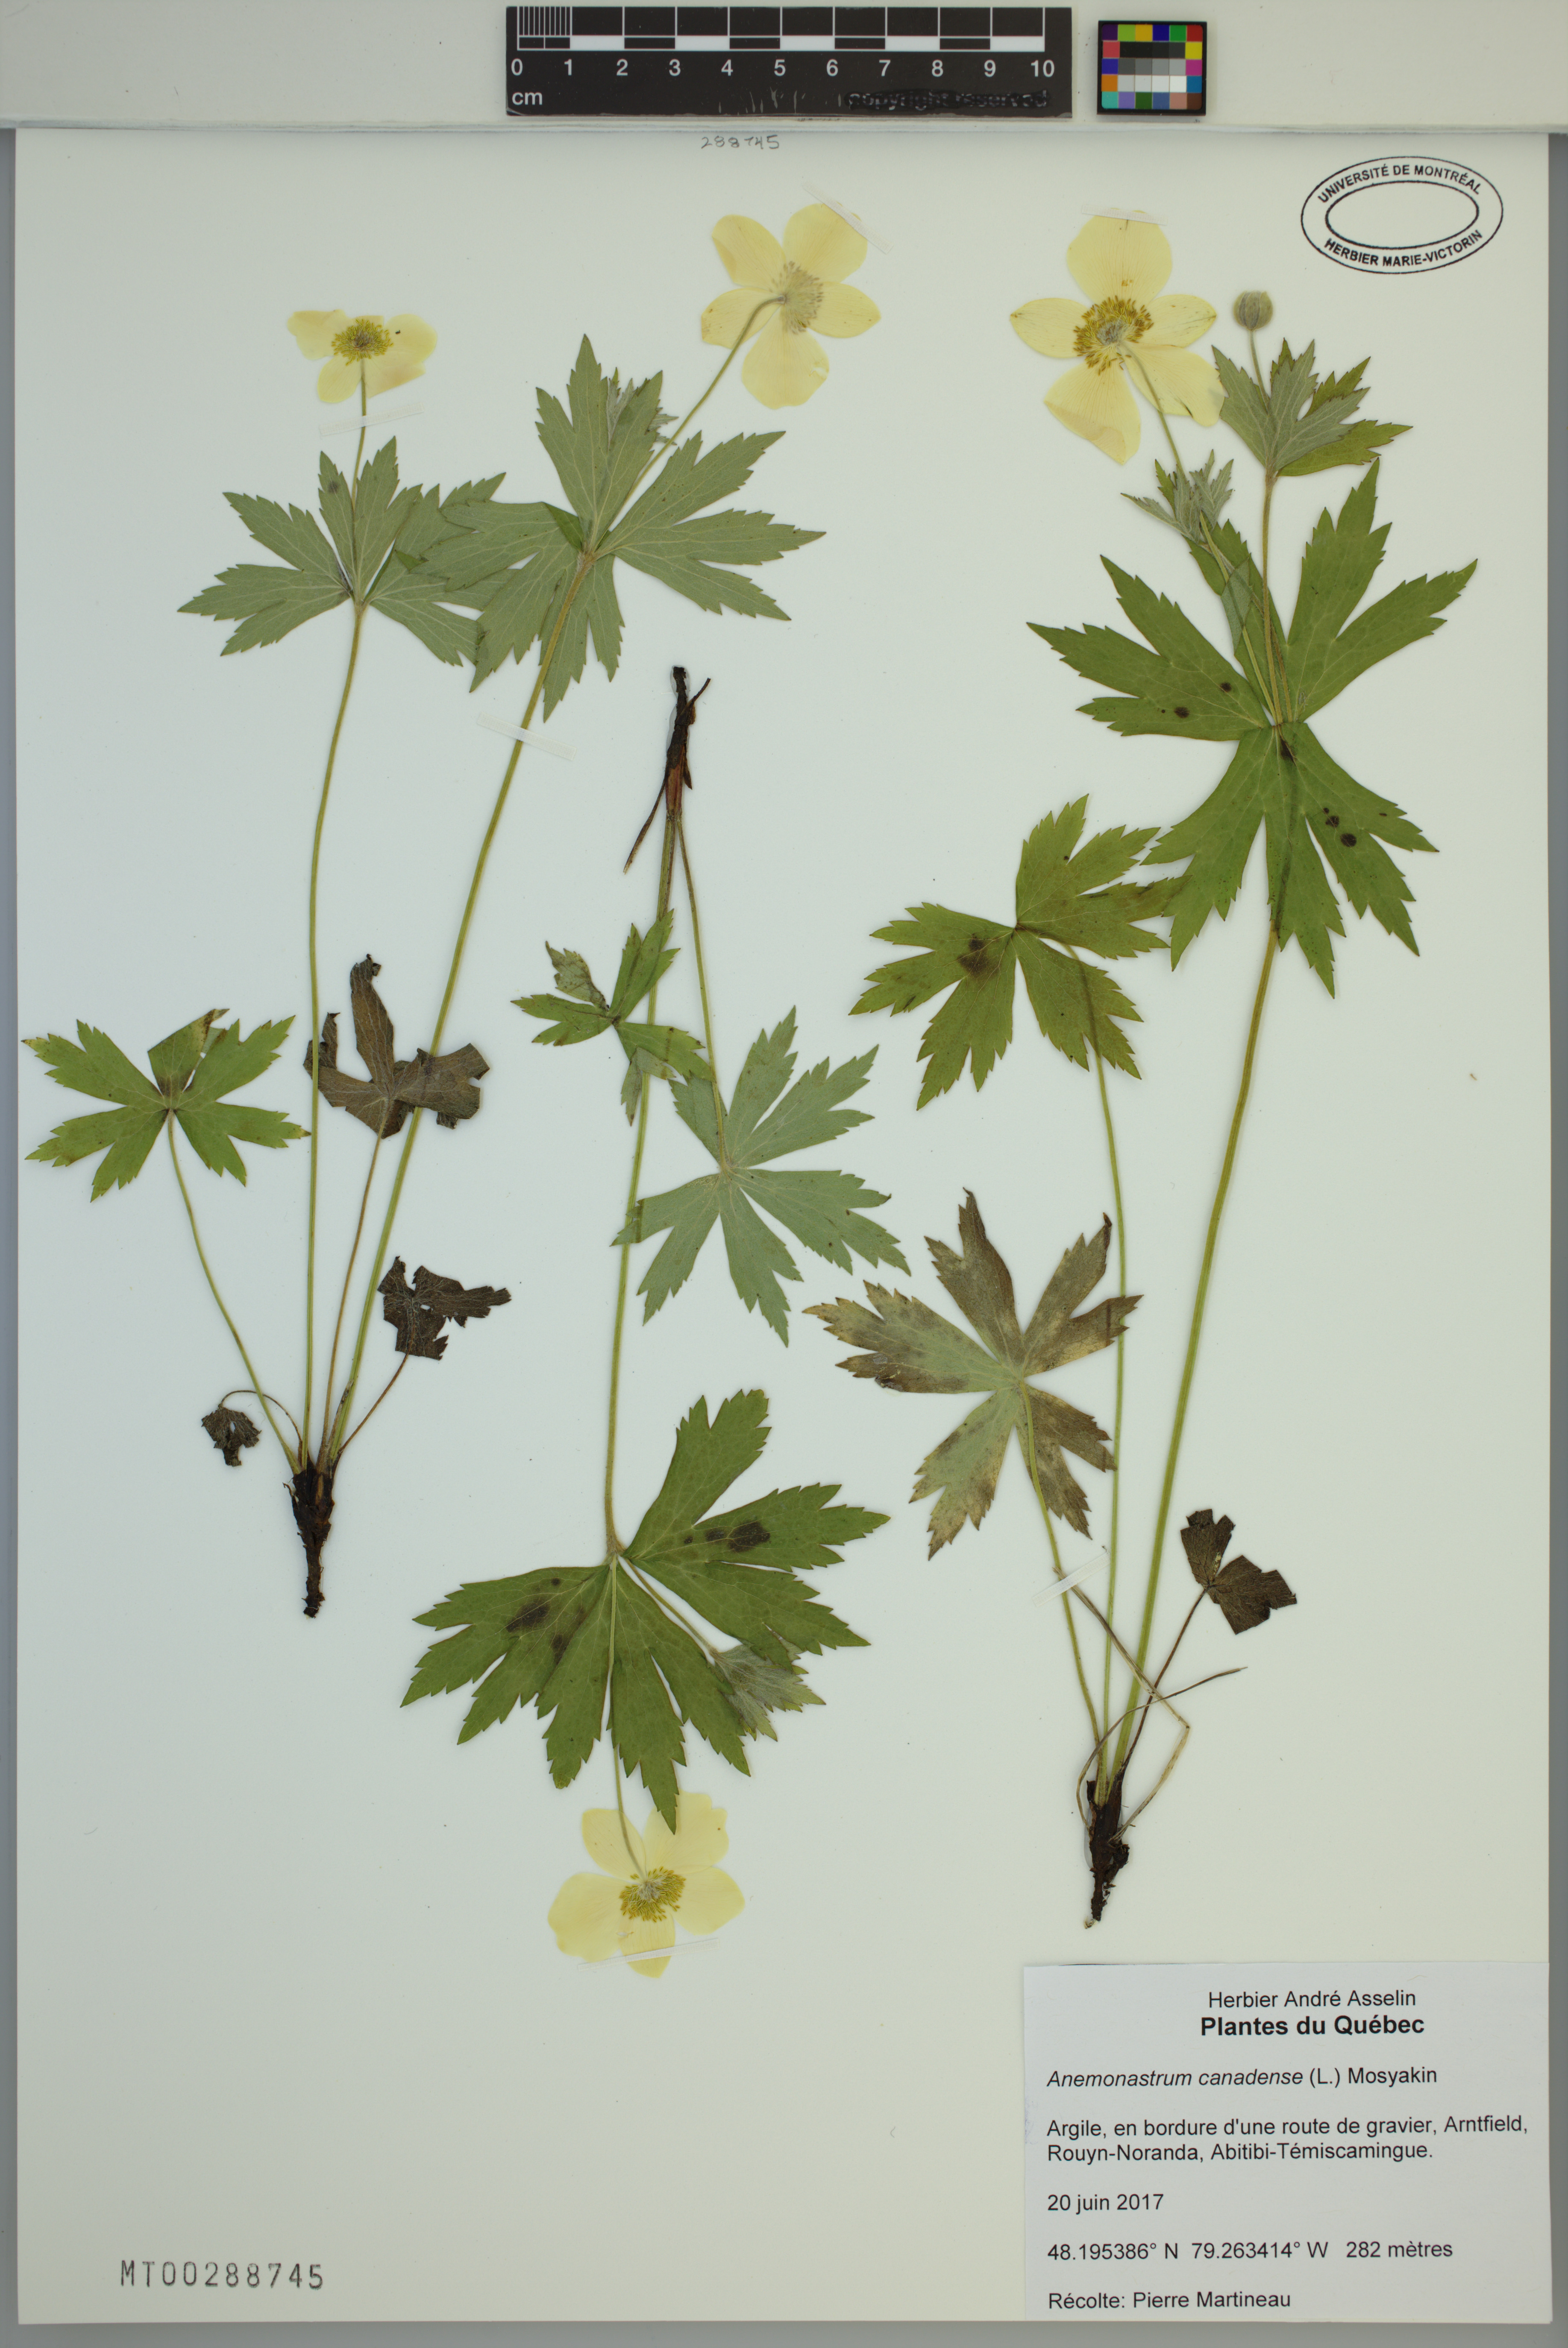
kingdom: Plantae
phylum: Tracheophyta
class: Magnoliopsida
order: Ranunculales
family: Ranunculaceae
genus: Anemonastrum
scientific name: Anemonastrum canadense
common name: Canada anemone
